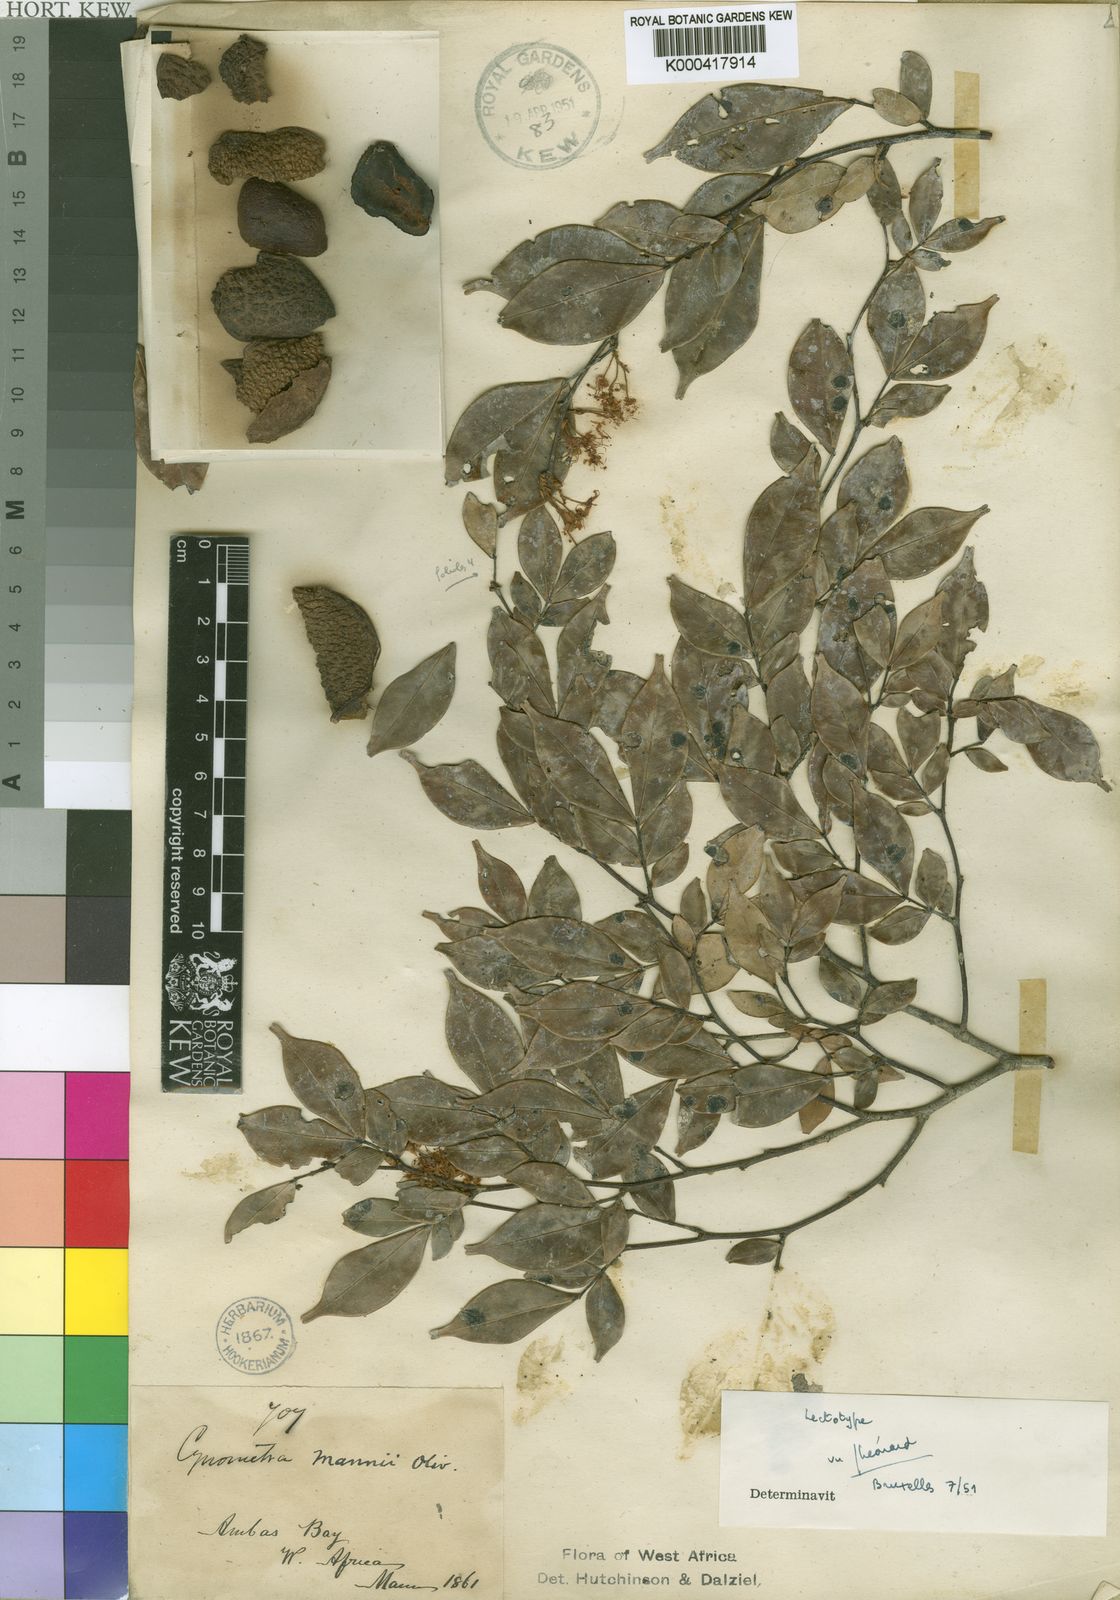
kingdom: Plantae
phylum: Tracheophyta
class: Magnoliopsida
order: Fabales
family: Fabaceae
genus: Cynometra
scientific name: Cynometra mannii
